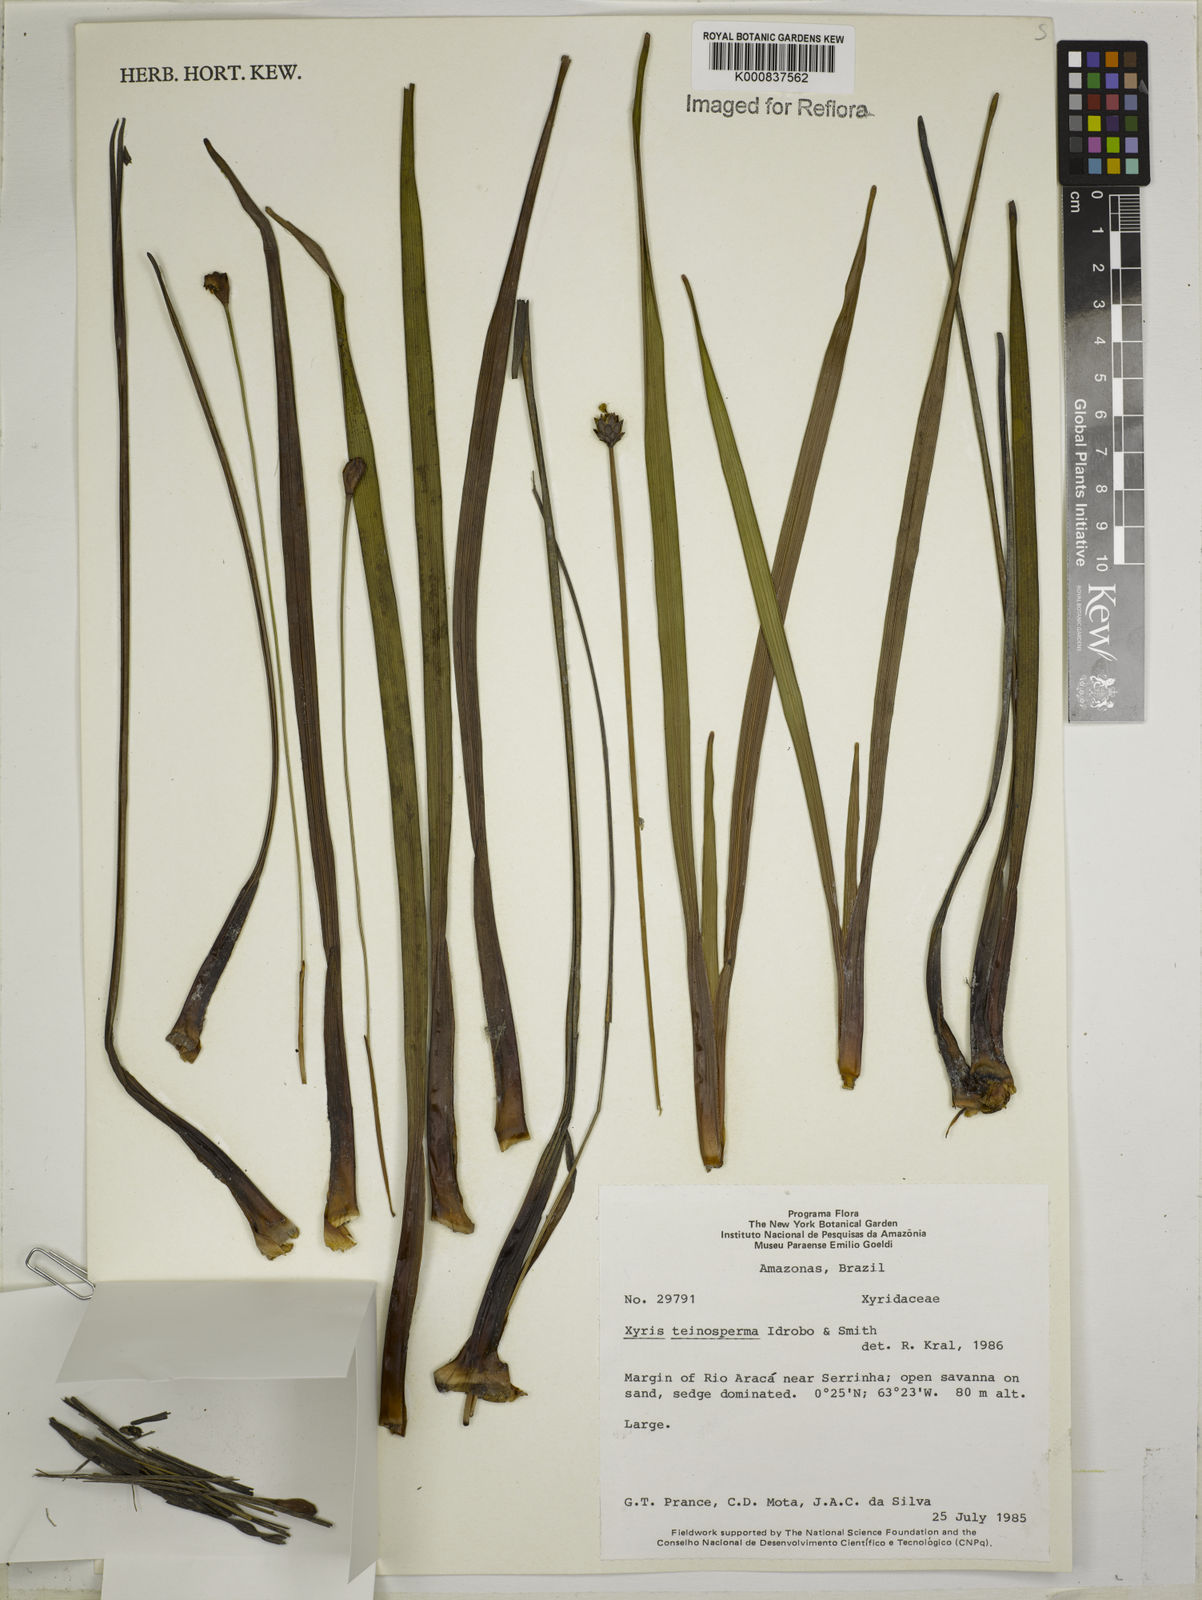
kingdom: Plantae
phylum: Tracheophyta
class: Liliopsida
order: Poales
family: Xyridaceae
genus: Xyris
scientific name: Xyris teinosperma
